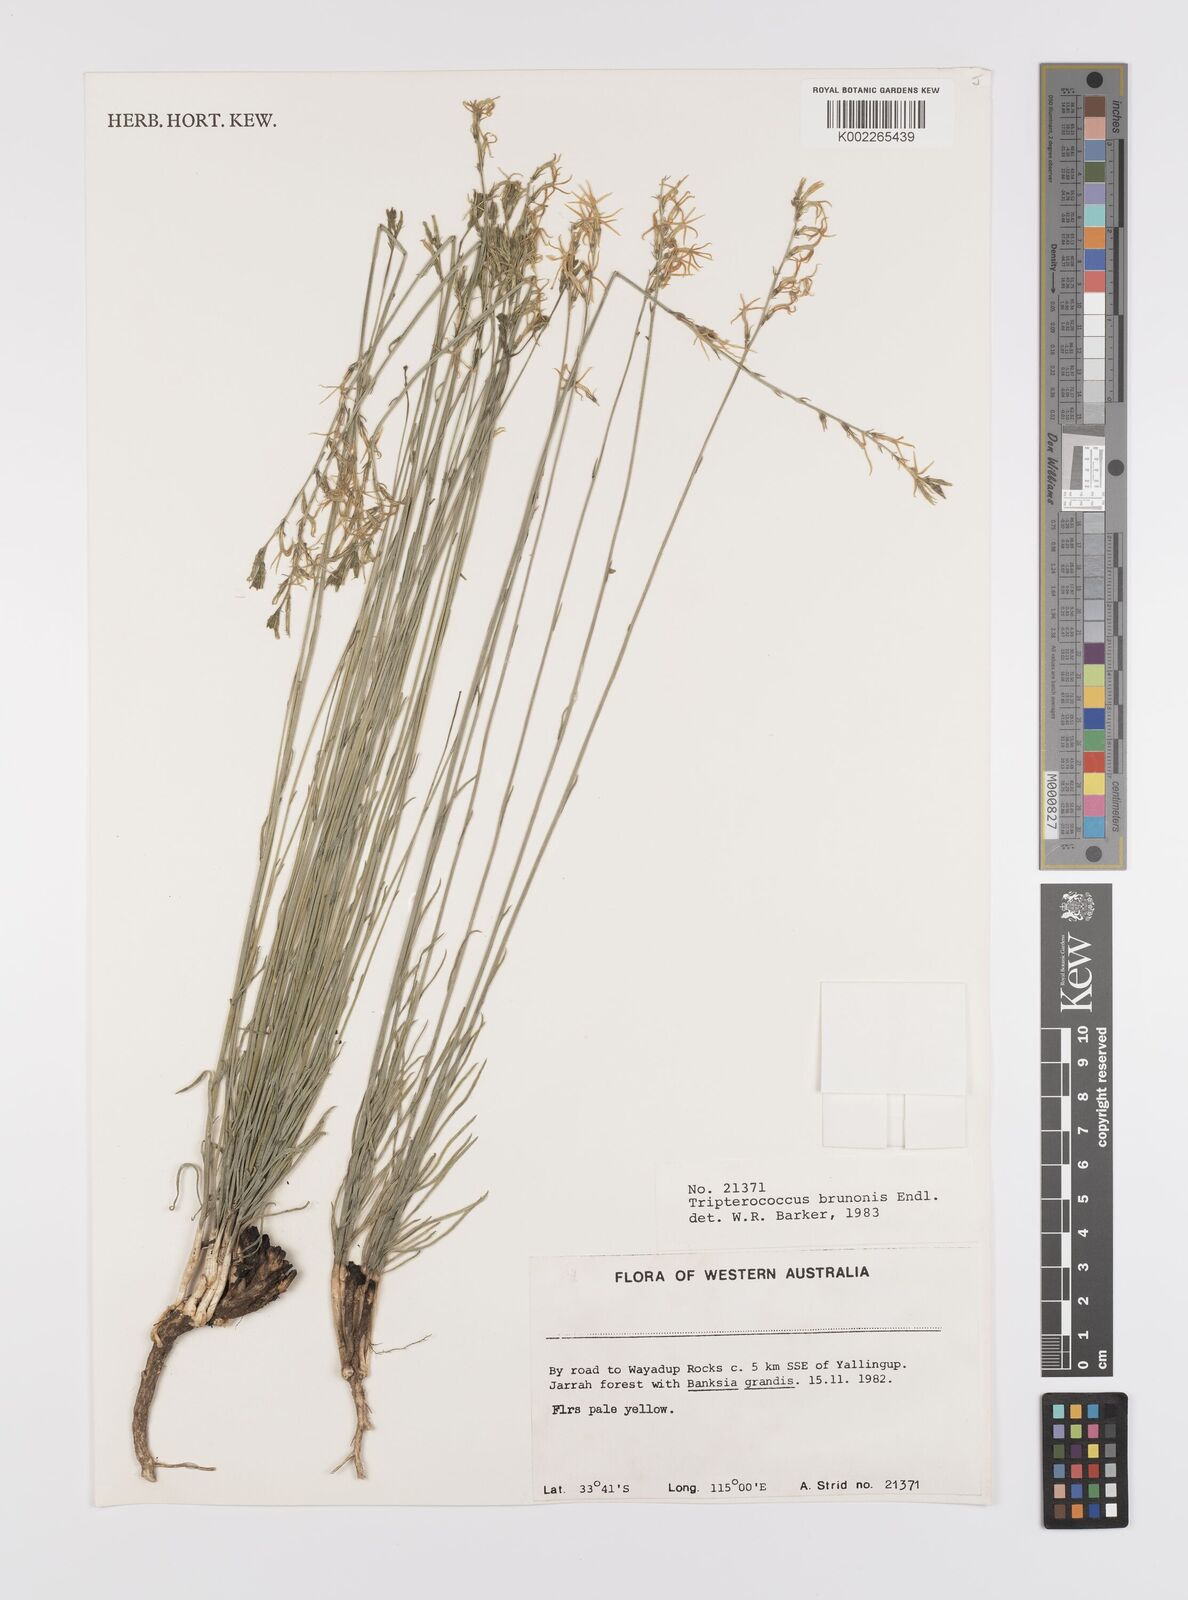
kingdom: Plantae
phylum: Tracheophyta
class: Magnoliopsida
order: Celastrales
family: Celastraceae
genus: Tripterococcus
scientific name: Tripterococcus brunonis
